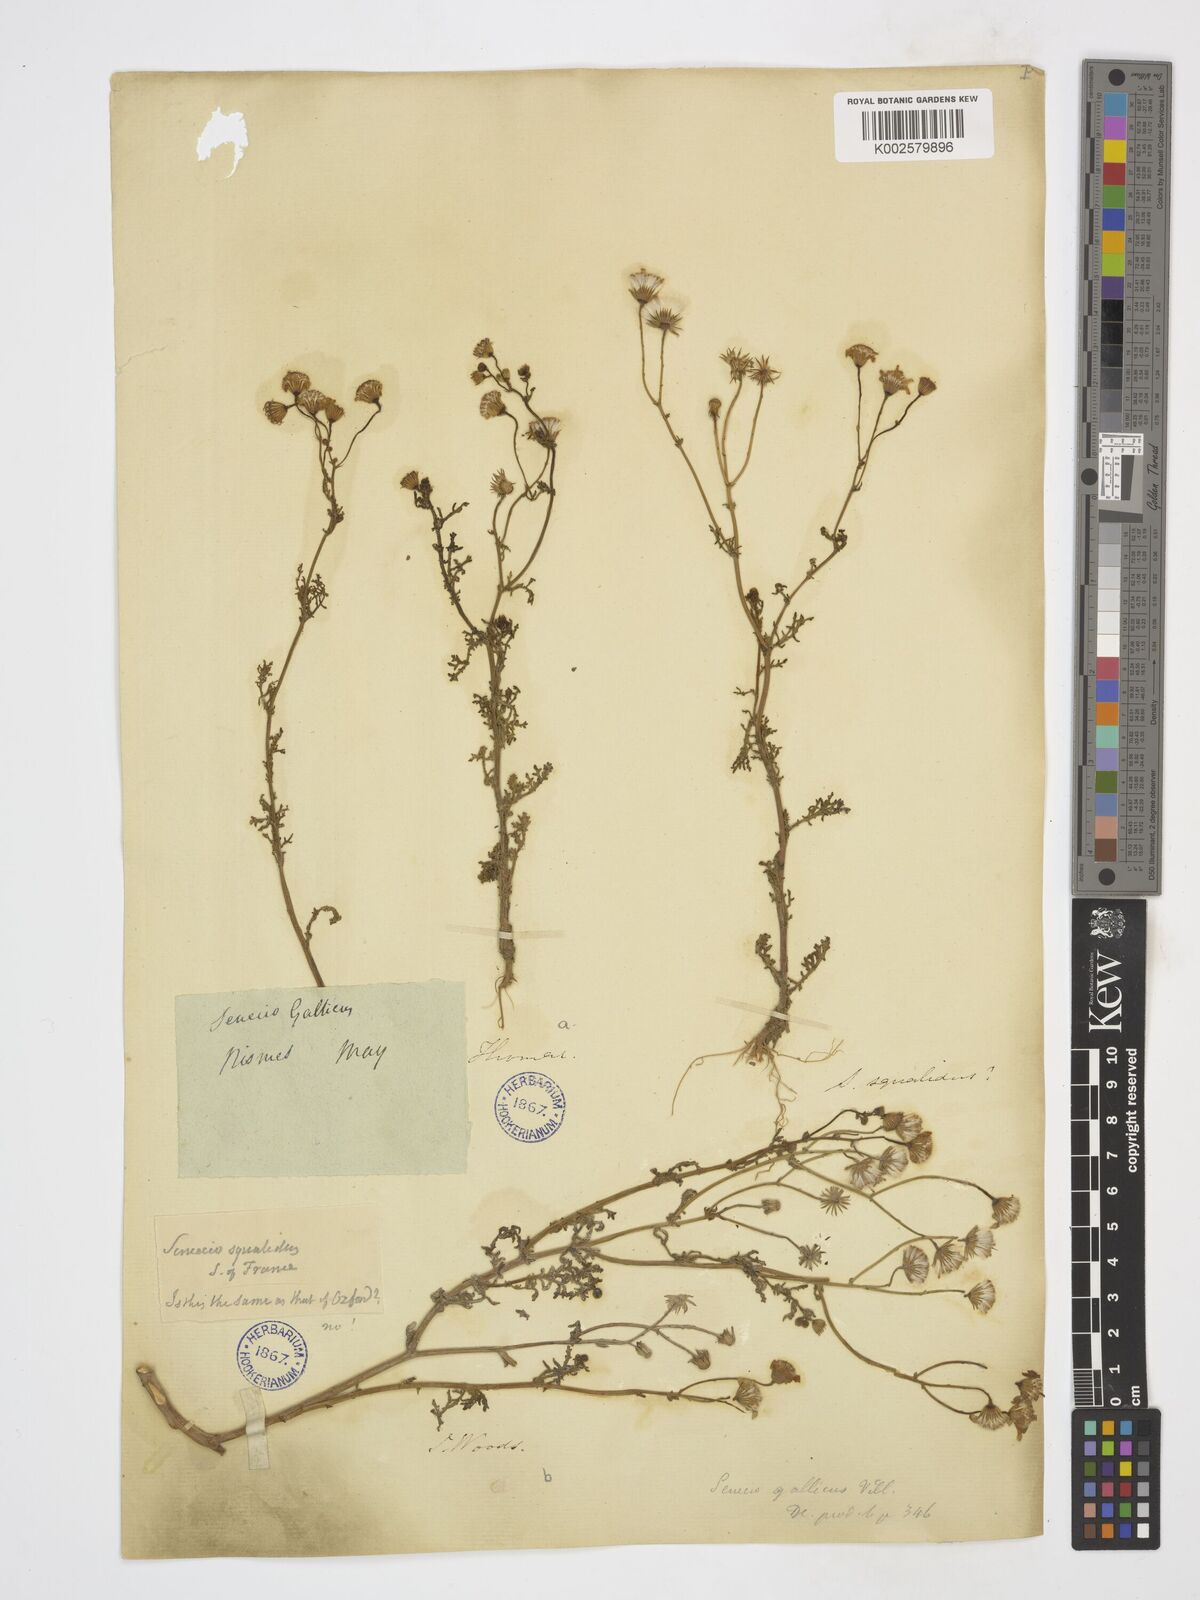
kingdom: Plantae
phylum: Tracheophyta
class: Magnoliopsida
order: Asterales
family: Asteraceae
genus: Senecio
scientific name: Senecio squalidus
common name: Oxford ragwort
